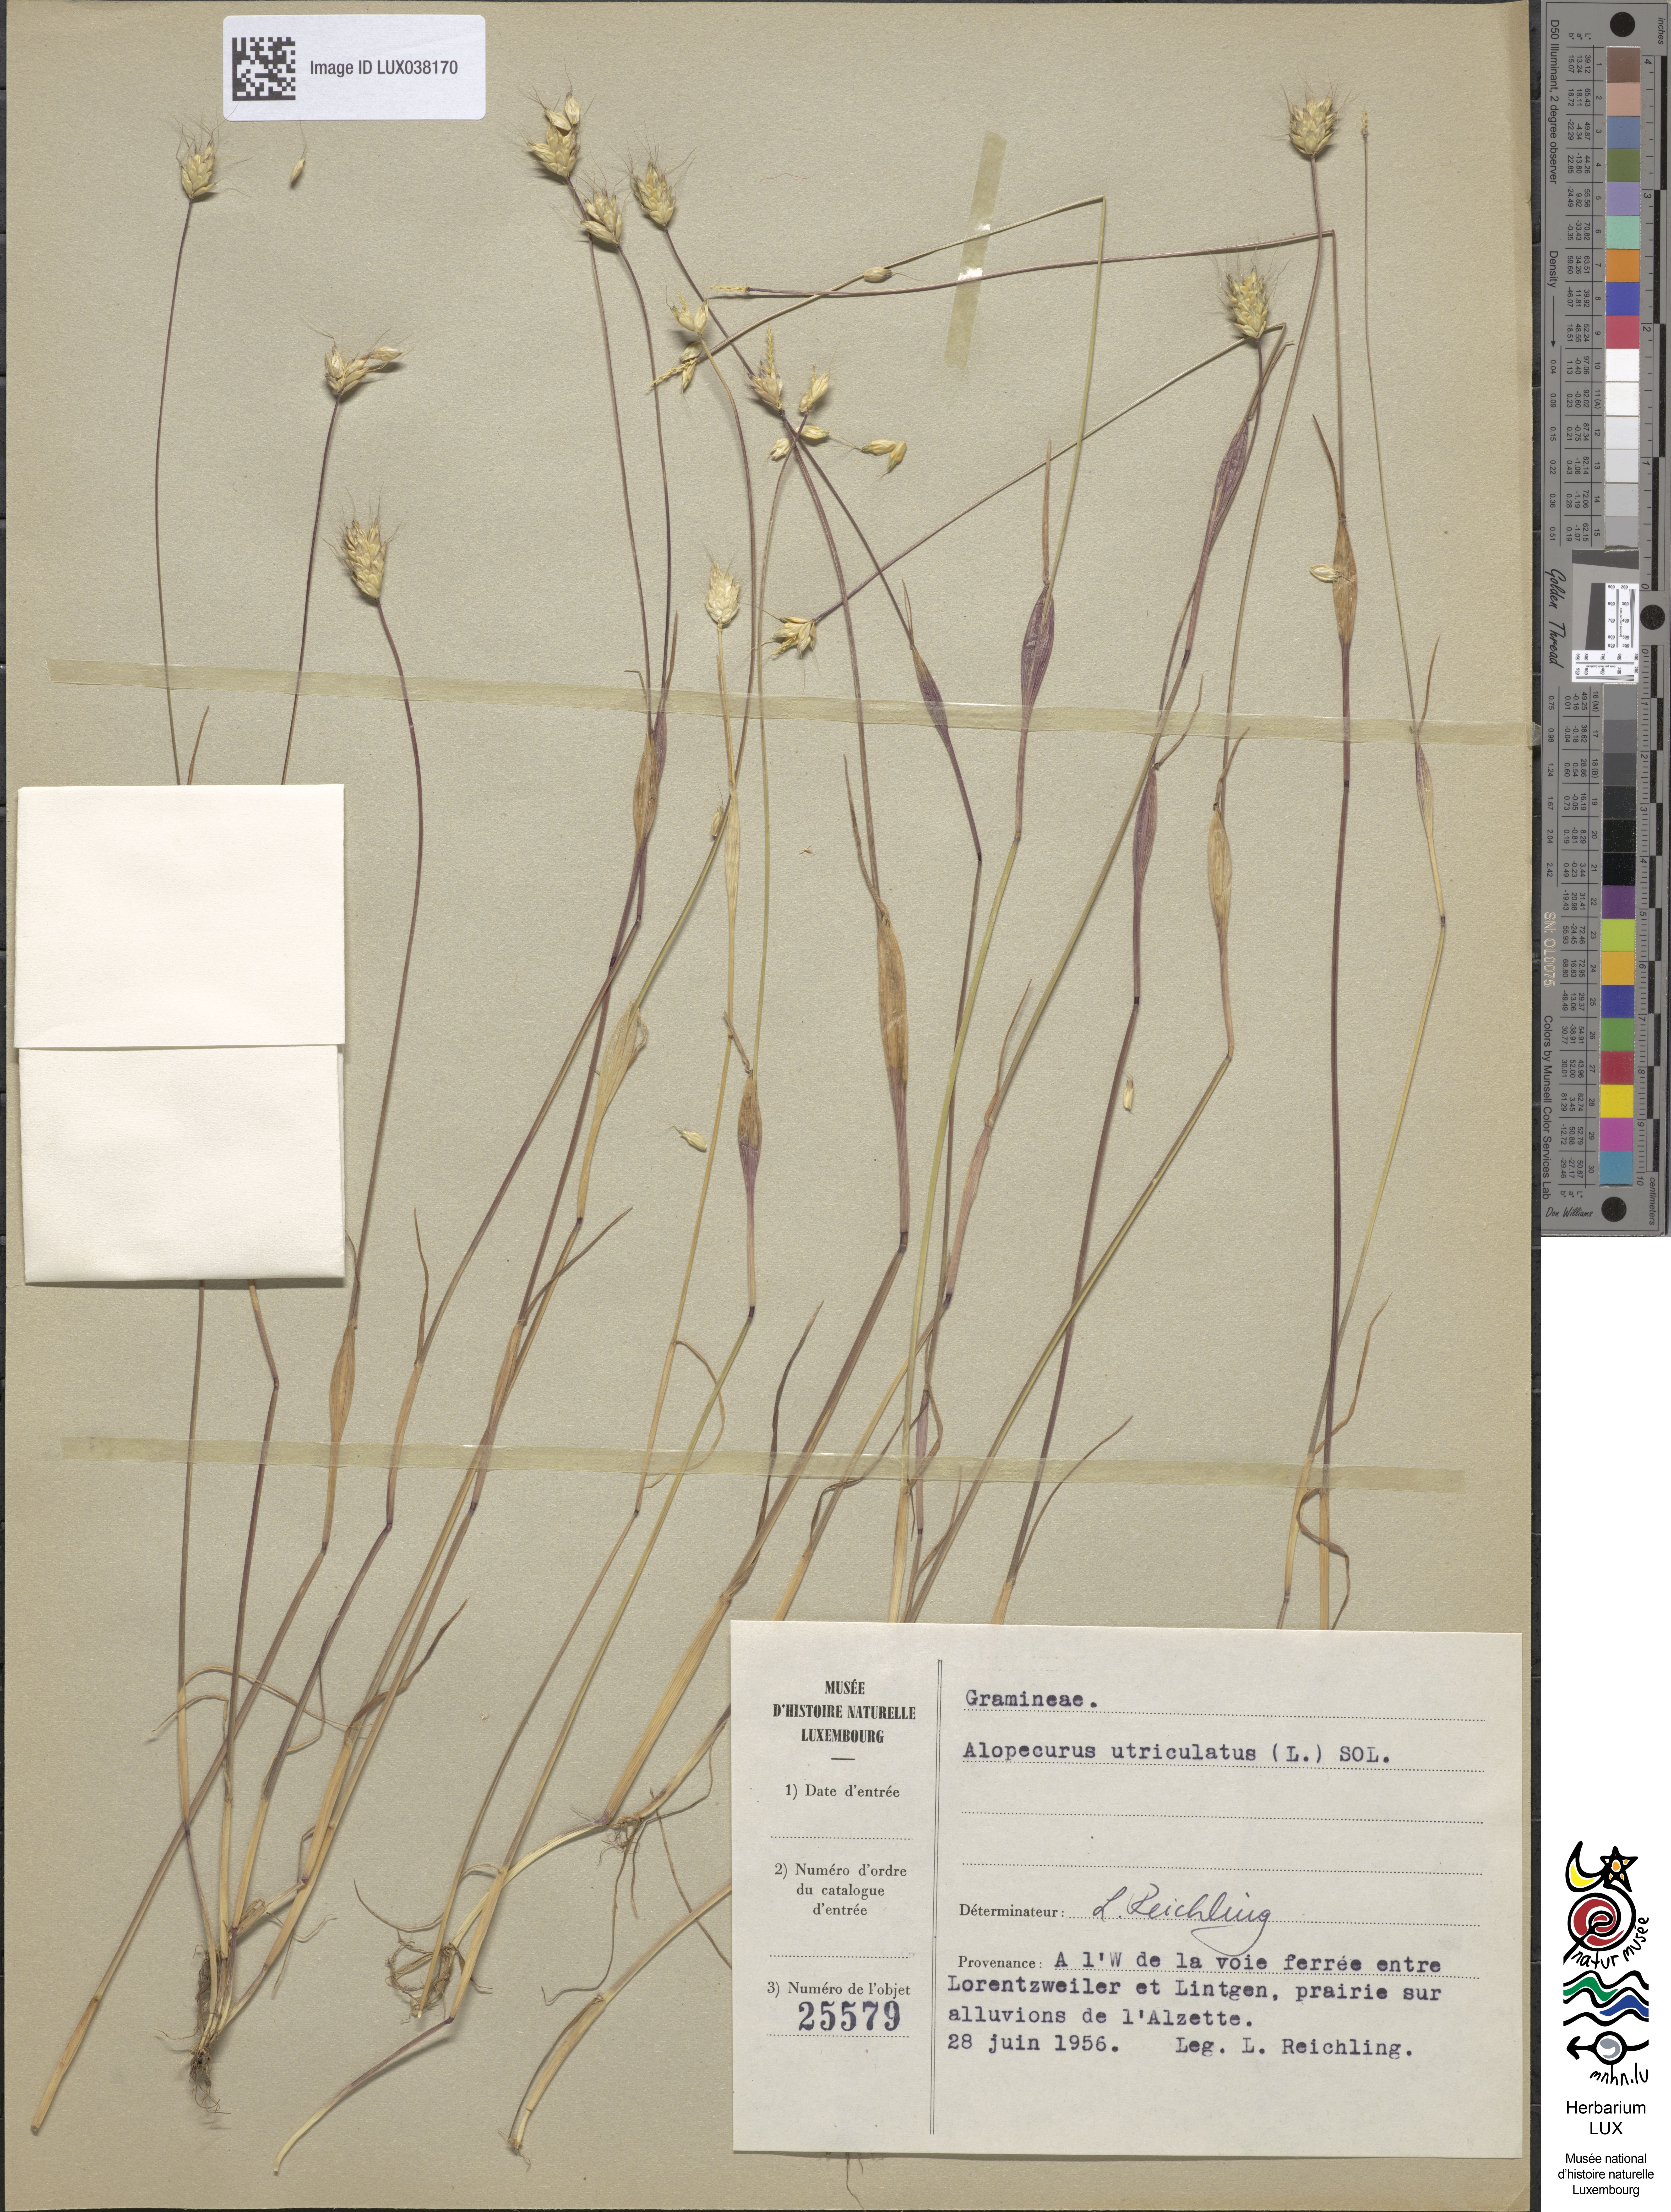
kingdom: Plantae
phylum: Tracheophyta
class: Liliopsida
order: Poales
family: Poaceae
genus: Alopecurus
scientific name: Alopecurus utriculatus
